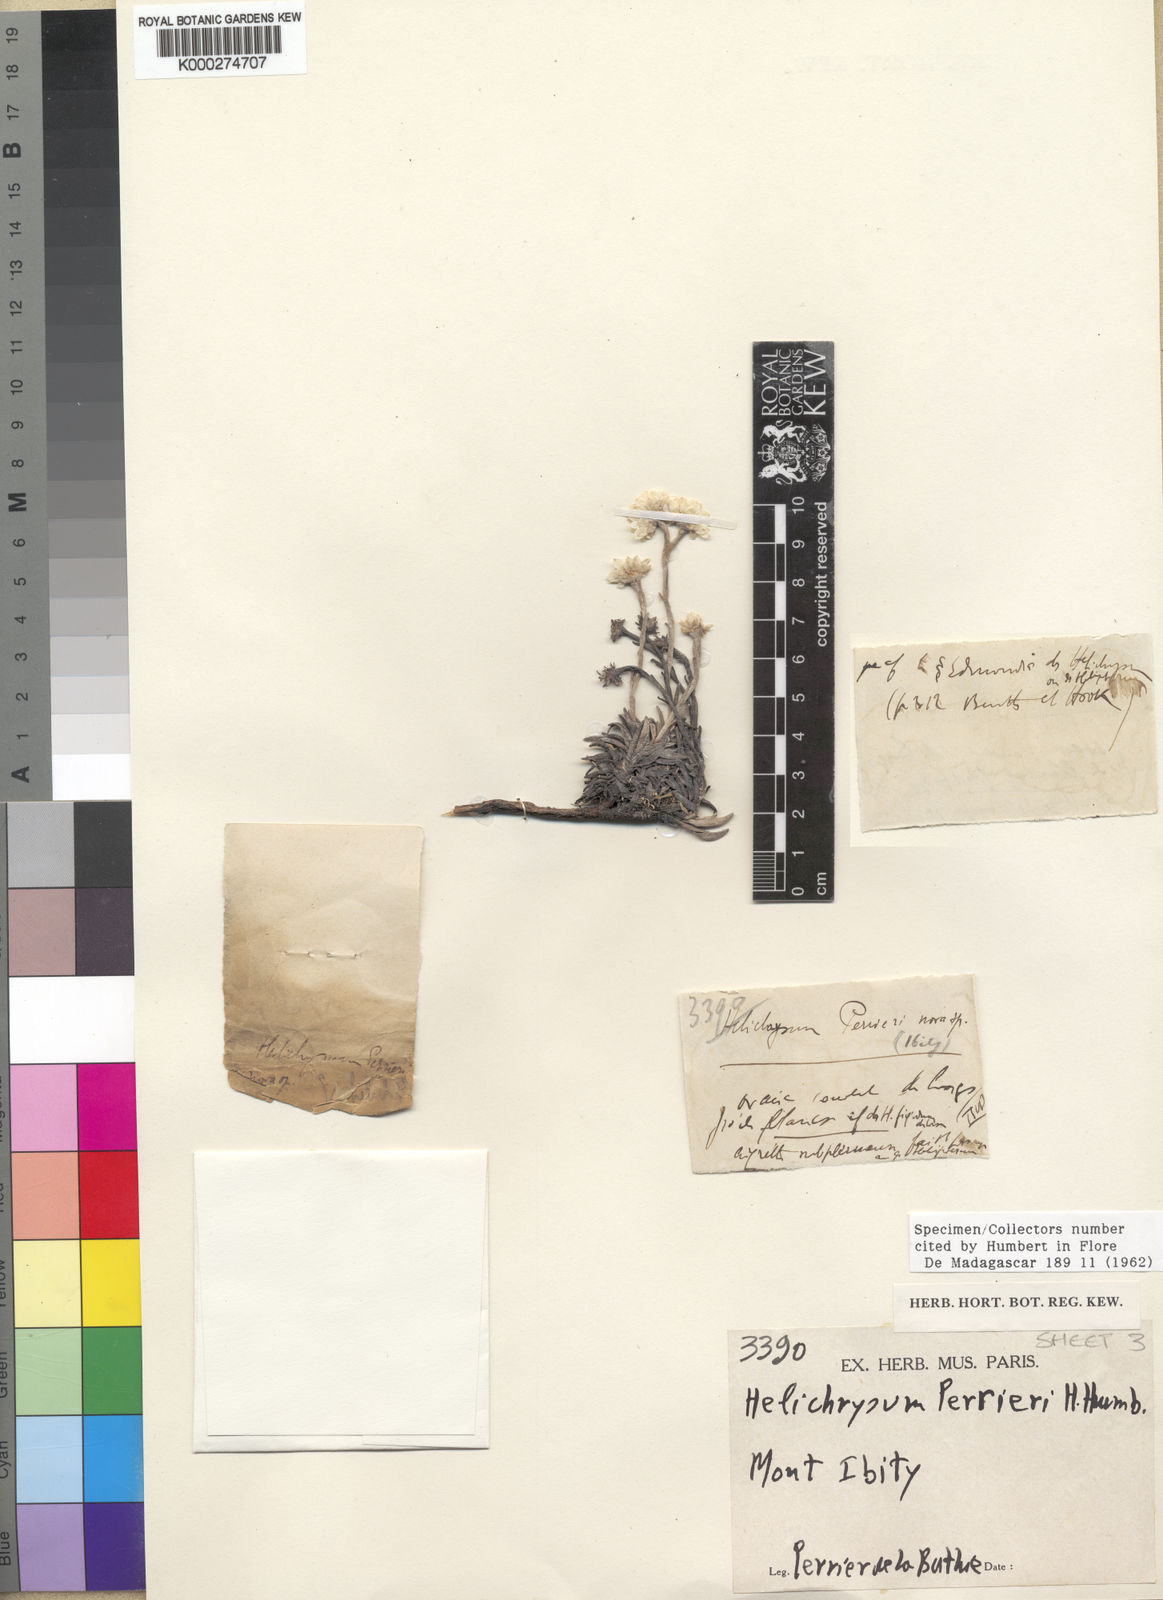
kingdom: Plantae
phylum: Tracheophyta
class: Magnoliopsida
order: Asterales
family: Asteraceae
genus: Helichrysum
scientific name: Helichrysum perrieri
